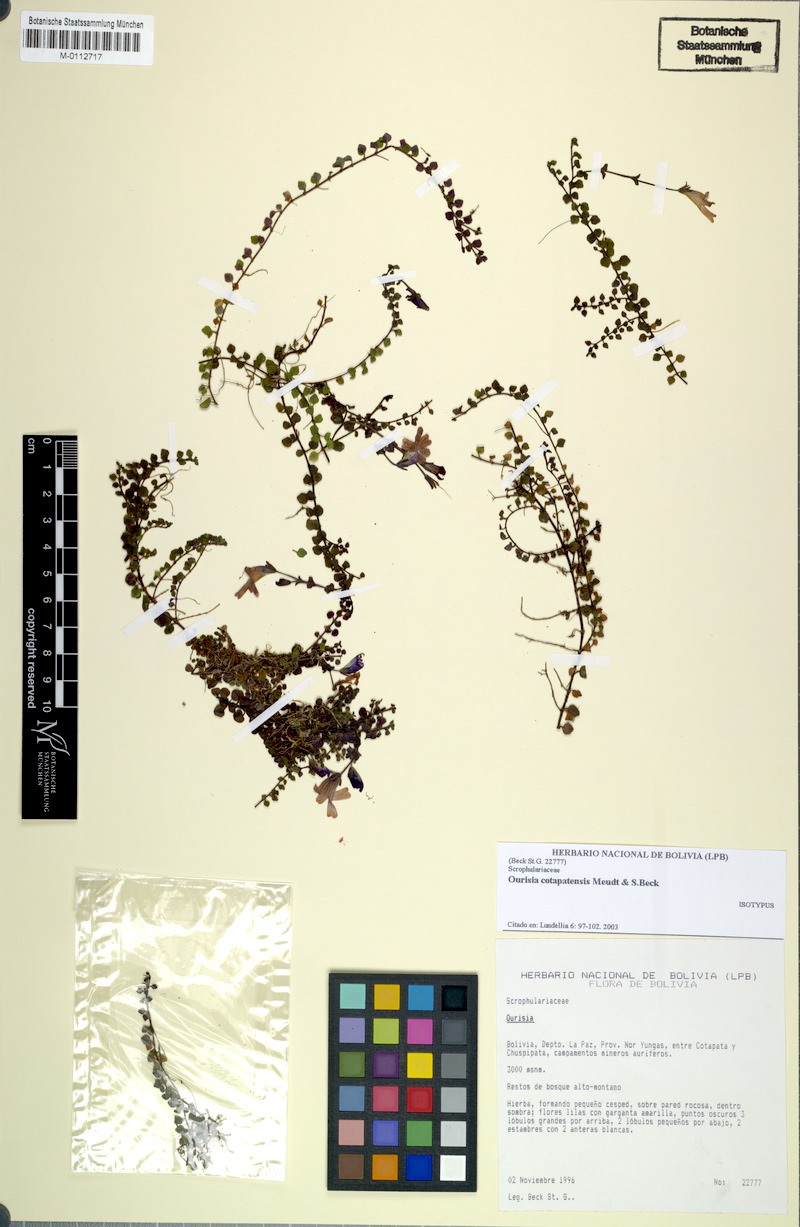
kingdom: Plantae
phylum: Tracheophyta
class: Magnoliopsida
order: Lamiales
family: Plantaginaceae
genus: Ourisia
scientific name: Ourisia cotapatensis
